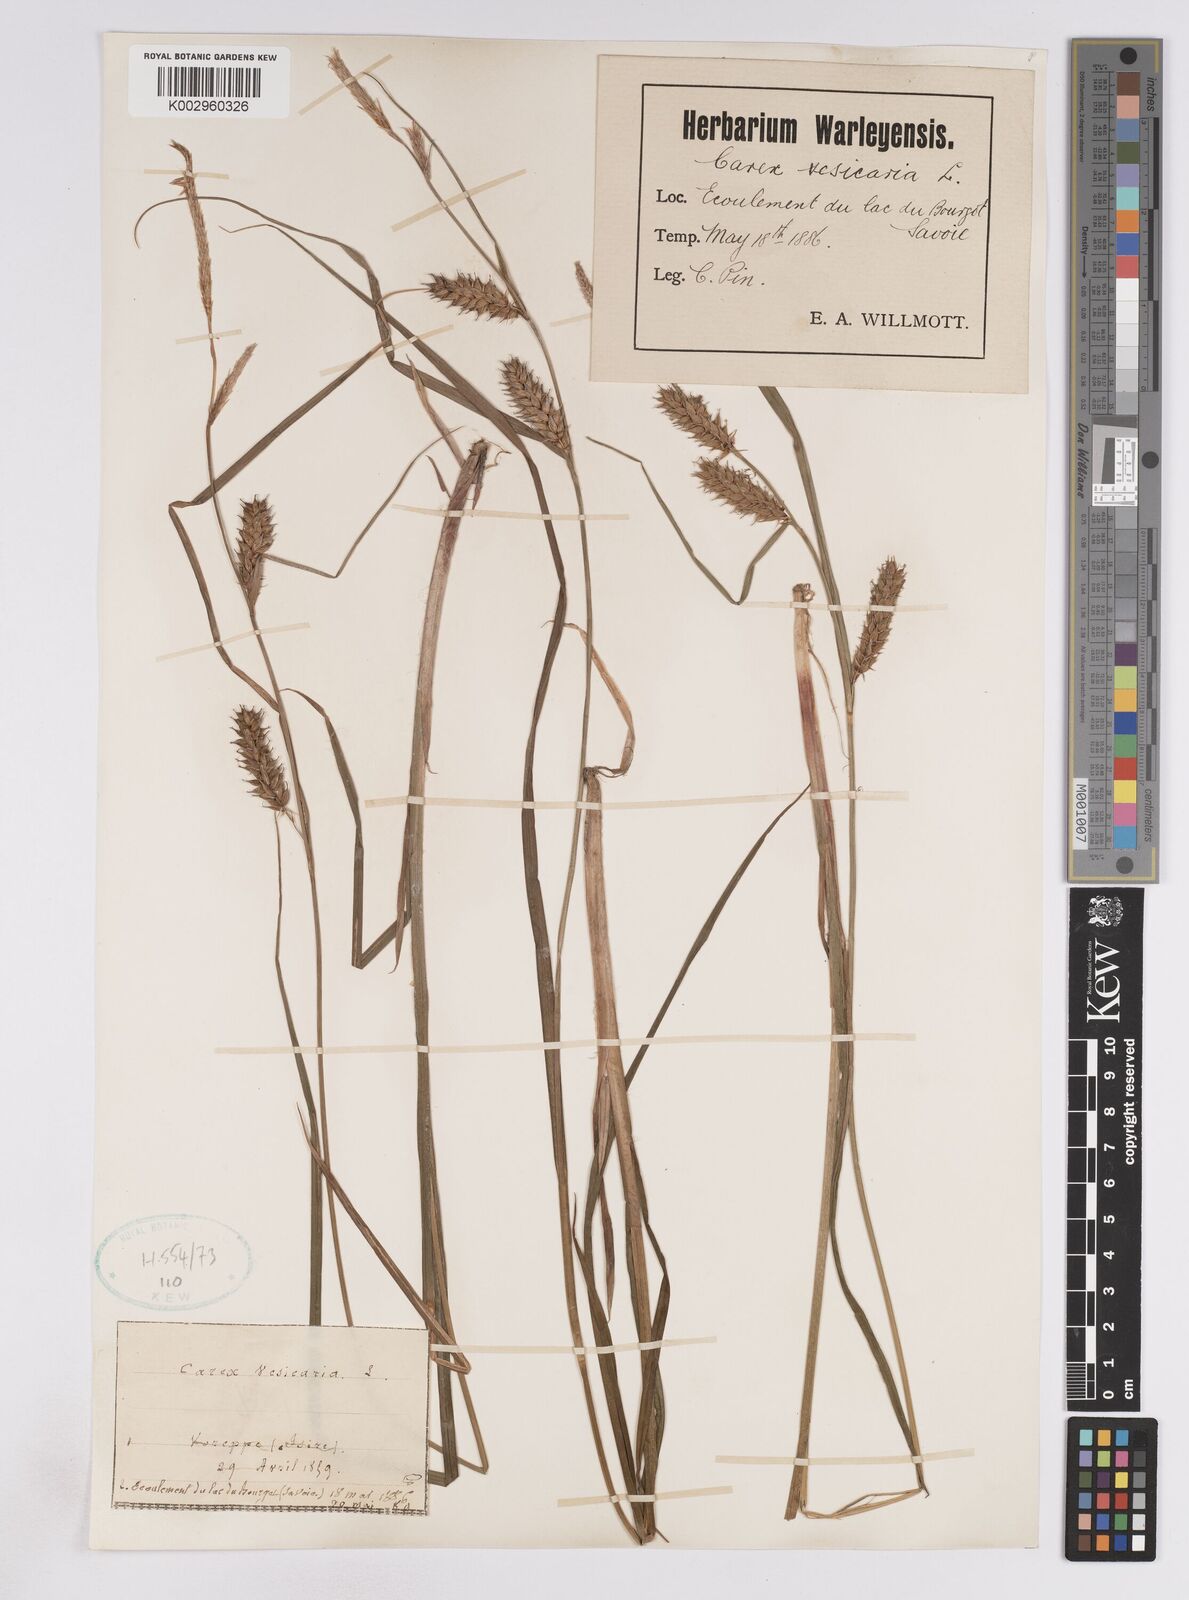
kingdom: Plantae
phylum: Tracheophyta
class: Liliopsida
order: Poales
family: Cyperaceae
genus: Carex
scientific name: Carex vesicaria
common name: Bladder-sedge
